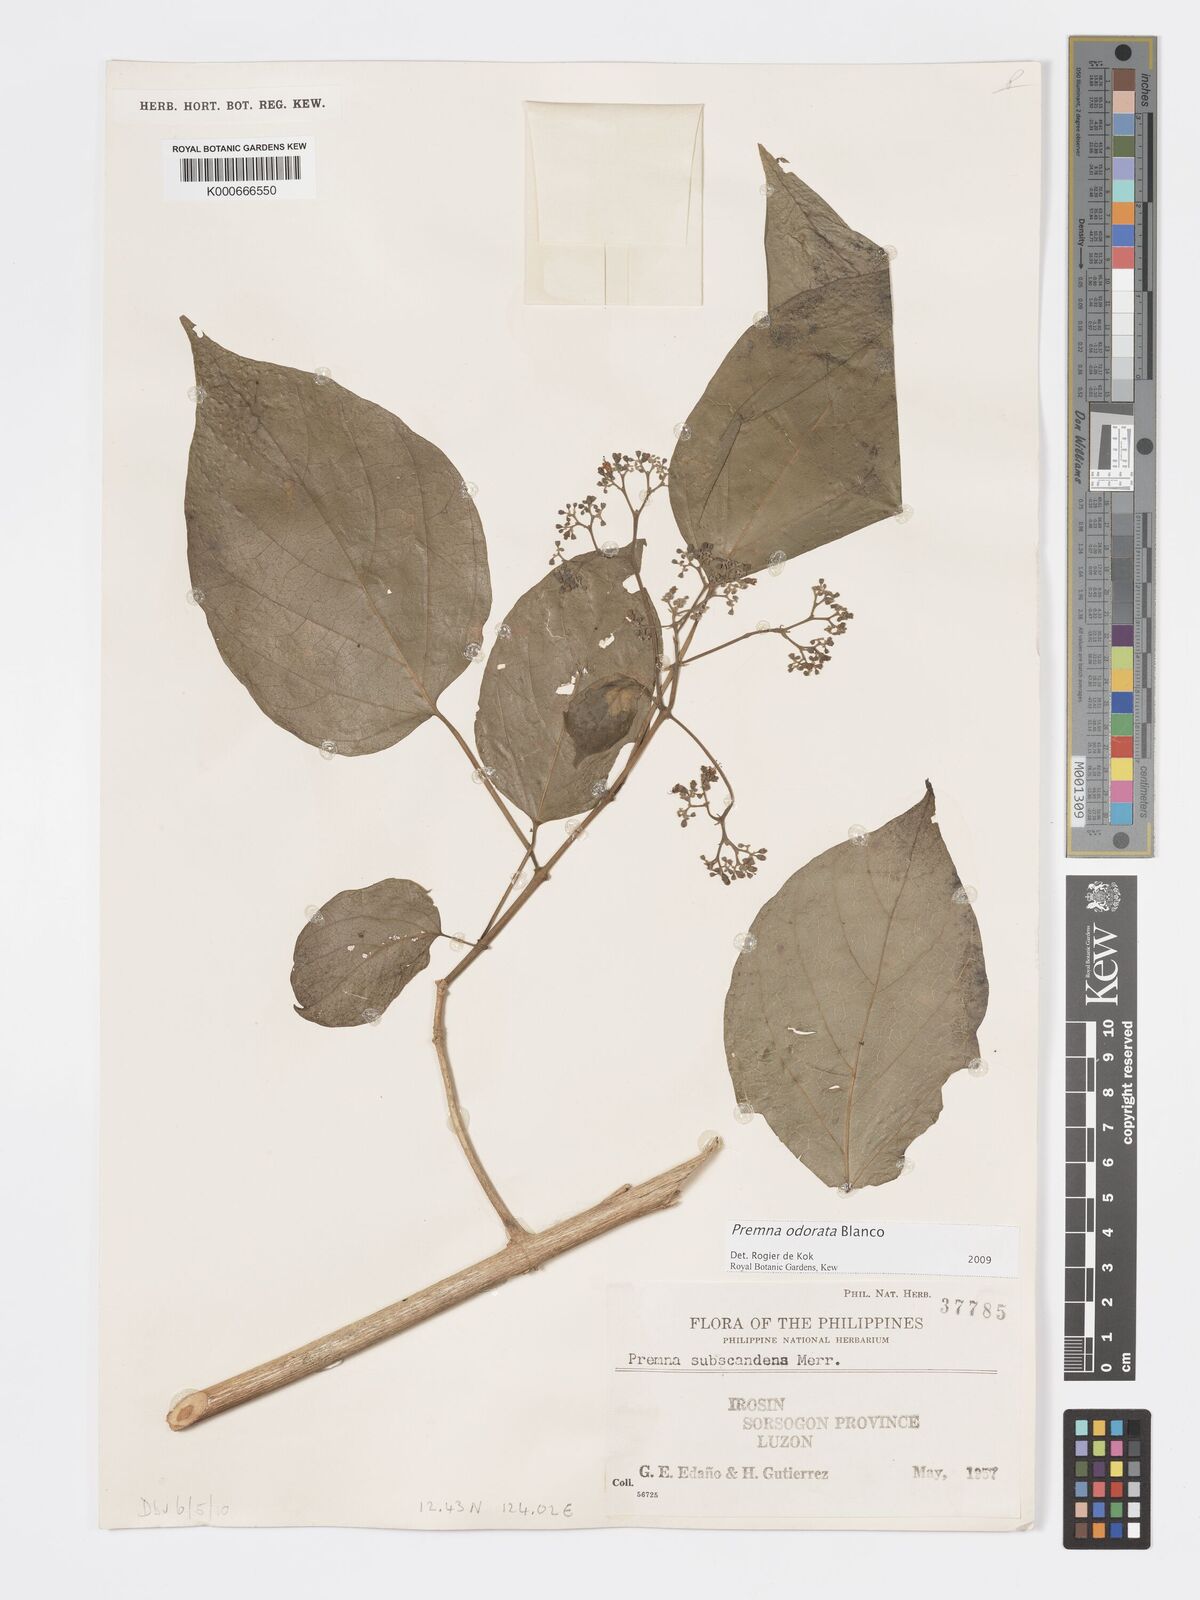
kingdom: Plantae
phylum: Tracheophyta
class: Magnoliopsida
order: Lamiales
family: Lamiaceae
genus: Premna
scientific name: Premna odorata
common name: Fragrant premna
